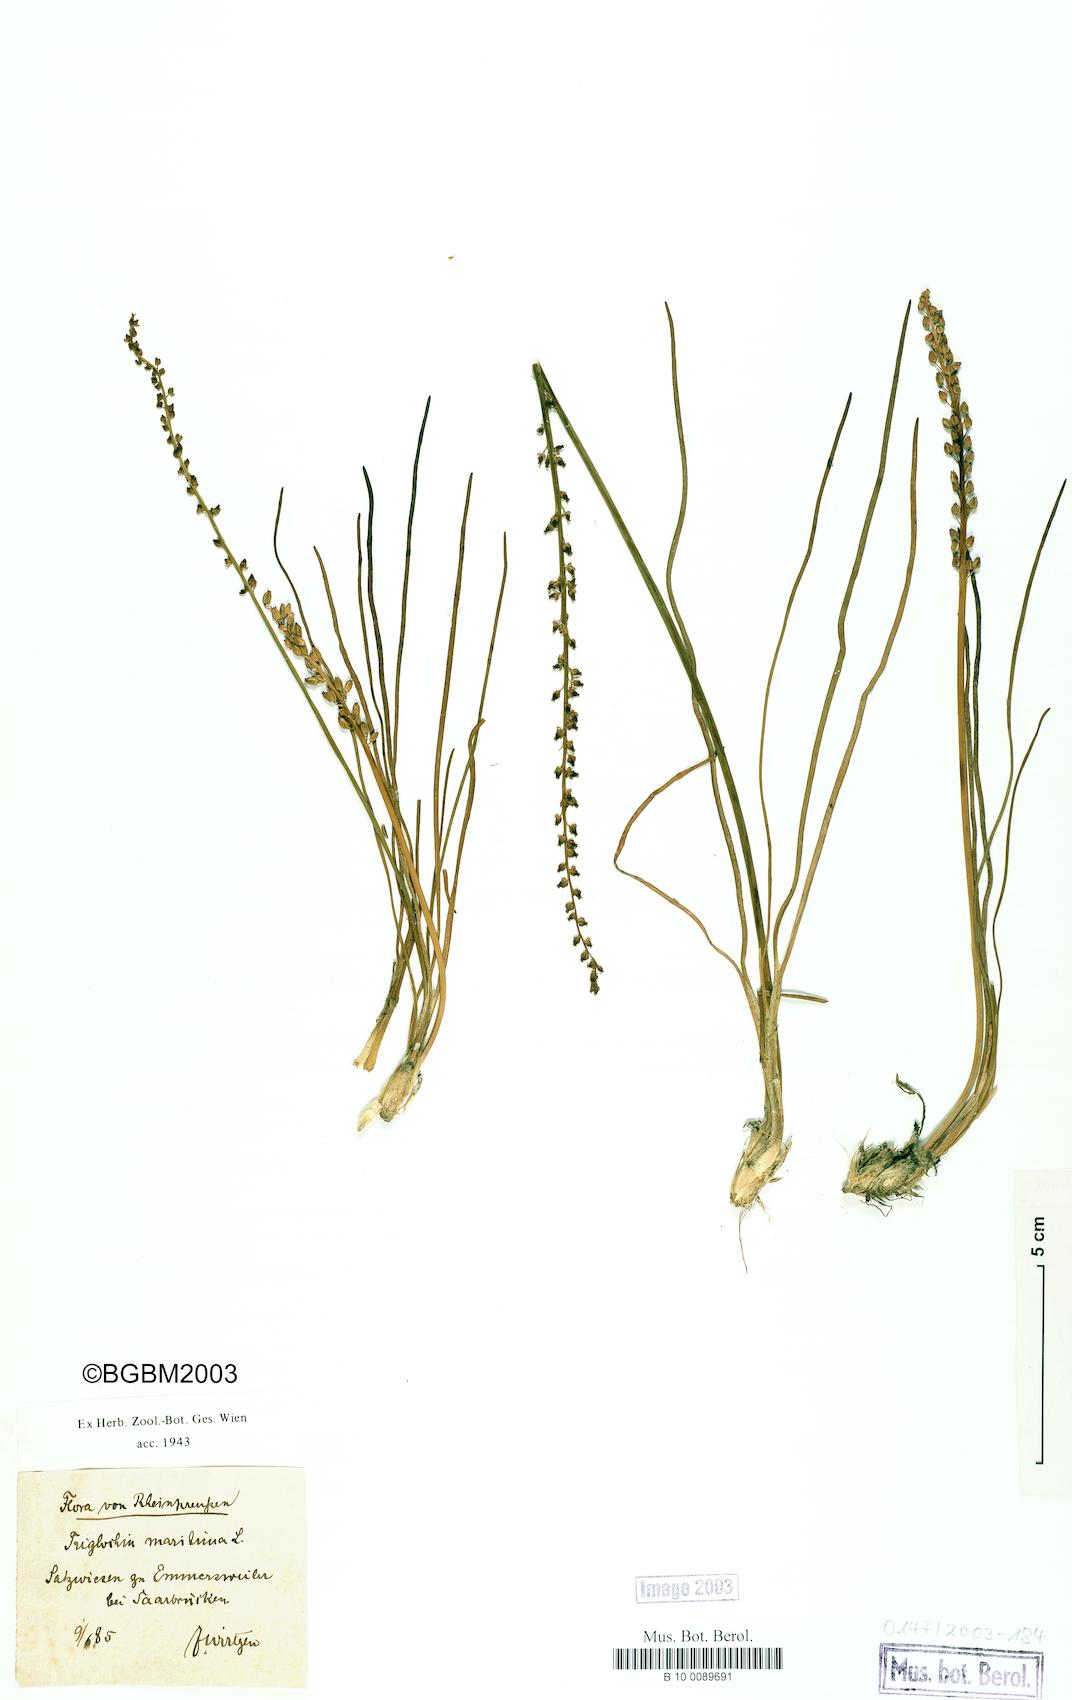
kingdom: Plantae
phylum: Tracheophyta
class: Liliopsida
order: Alismatales
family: Juncaginaceae
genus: Triglochin
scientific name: Triglochin maritima
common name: Sea arrowgrass
